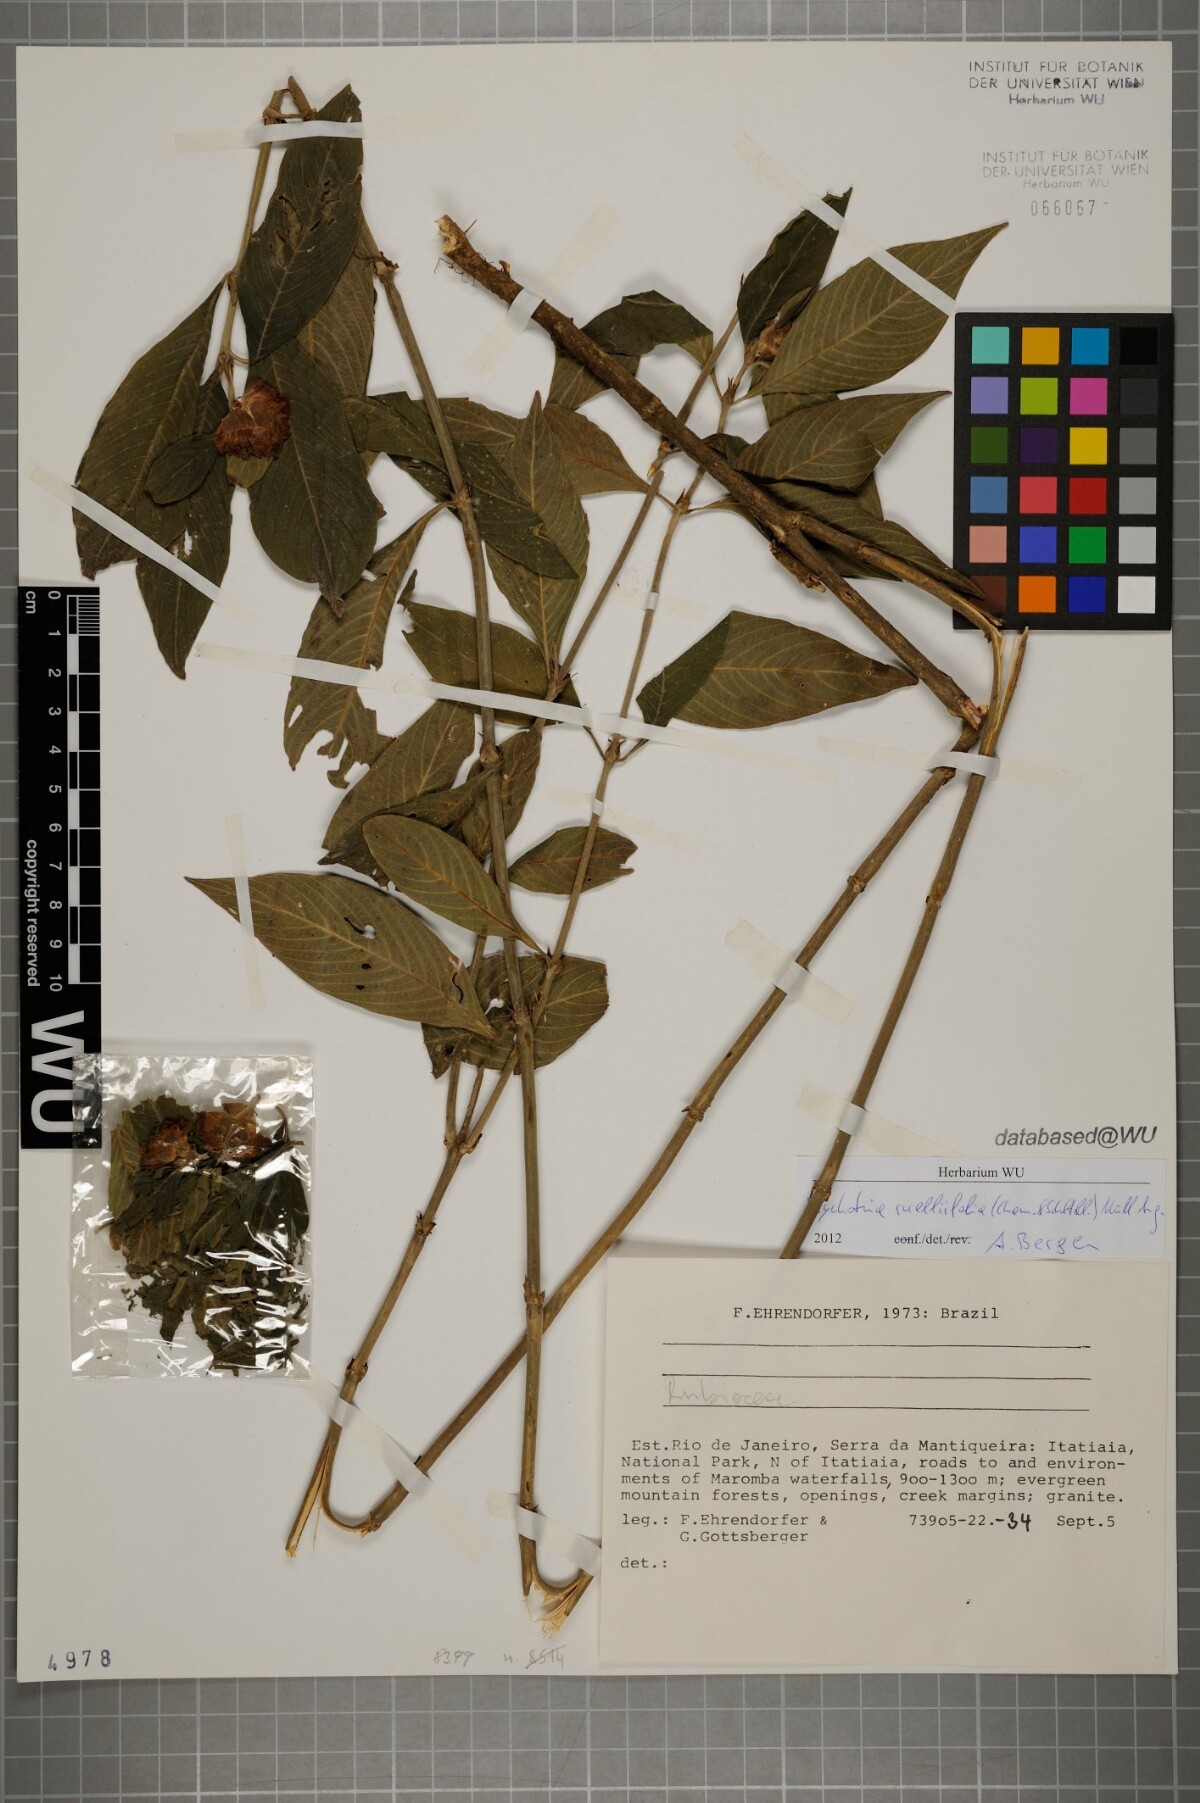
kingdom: Plantae
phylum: Tracheophyta
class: Magnoliopsida
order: Gentianales
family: Rubiaceae
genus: Palicourea
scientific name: Palicourea ruelliifolia
